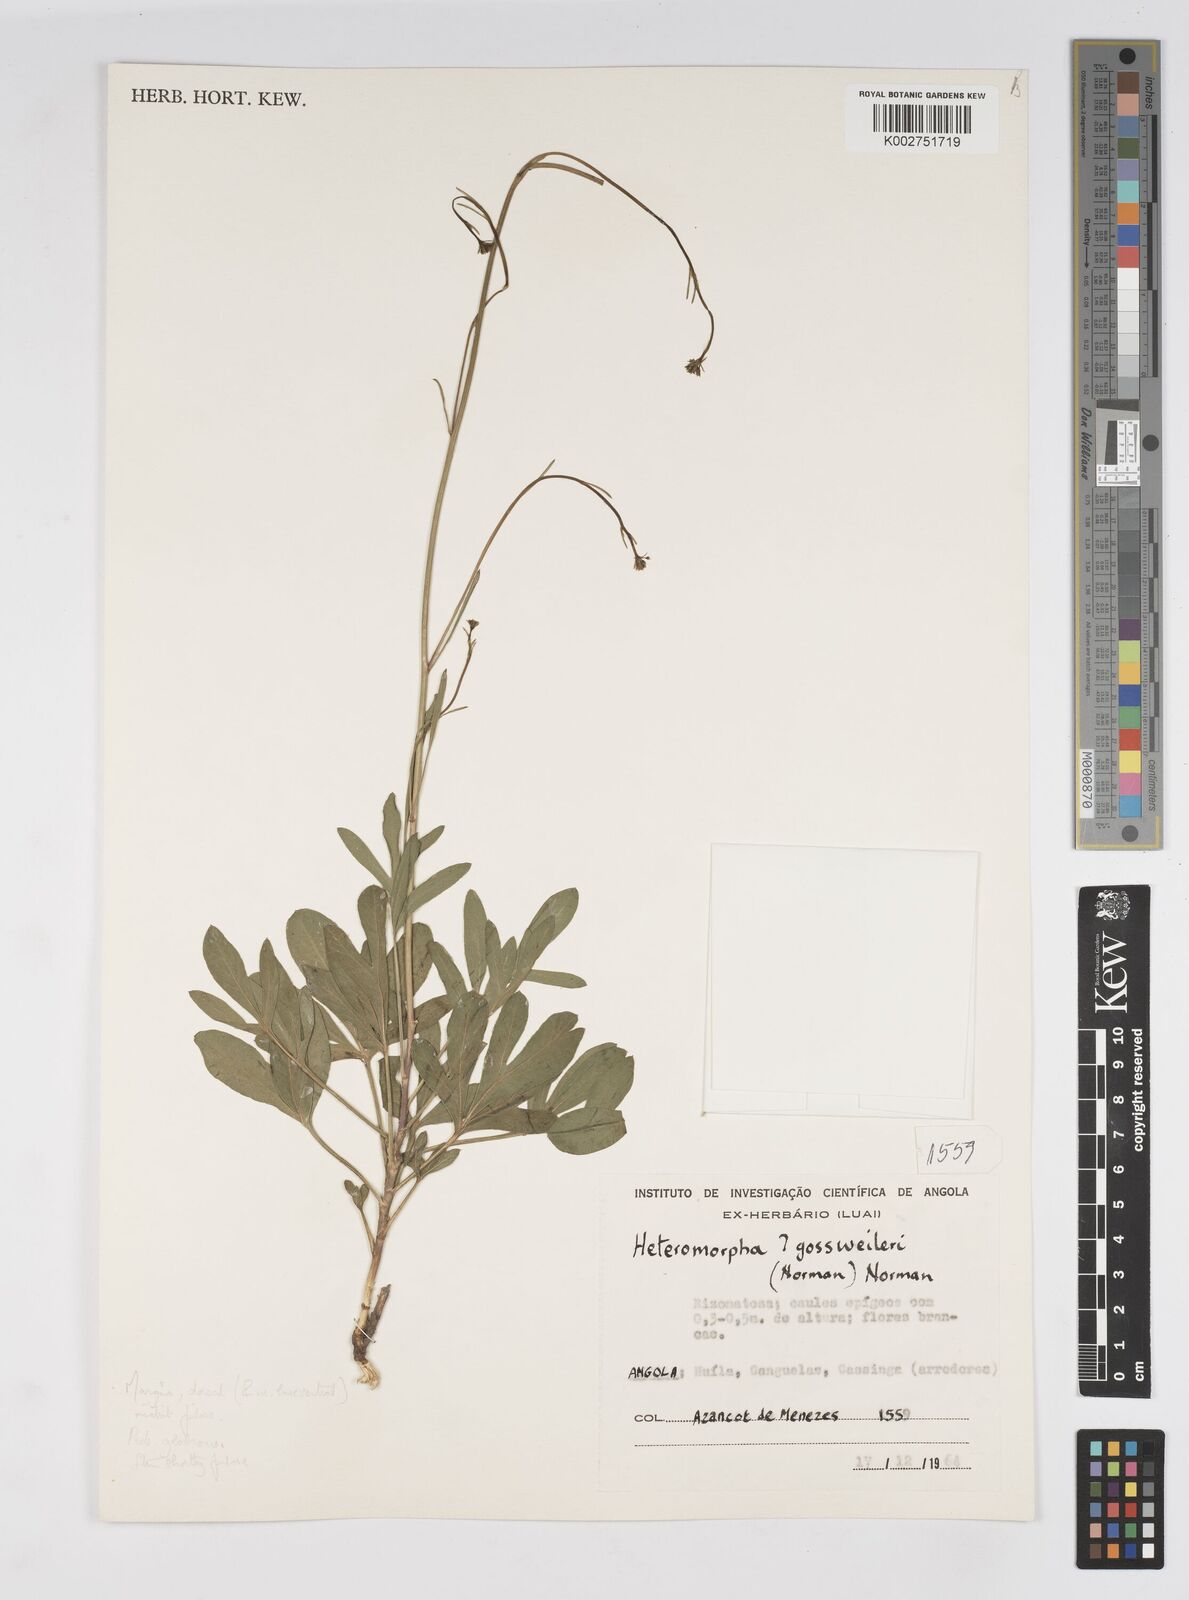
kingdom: Plantae
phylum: Tracheophyta
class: Magnoliopsida
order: Apiales
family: Apiaceae
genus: Heteromorpha
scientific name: Heteromorpha gossweileri
